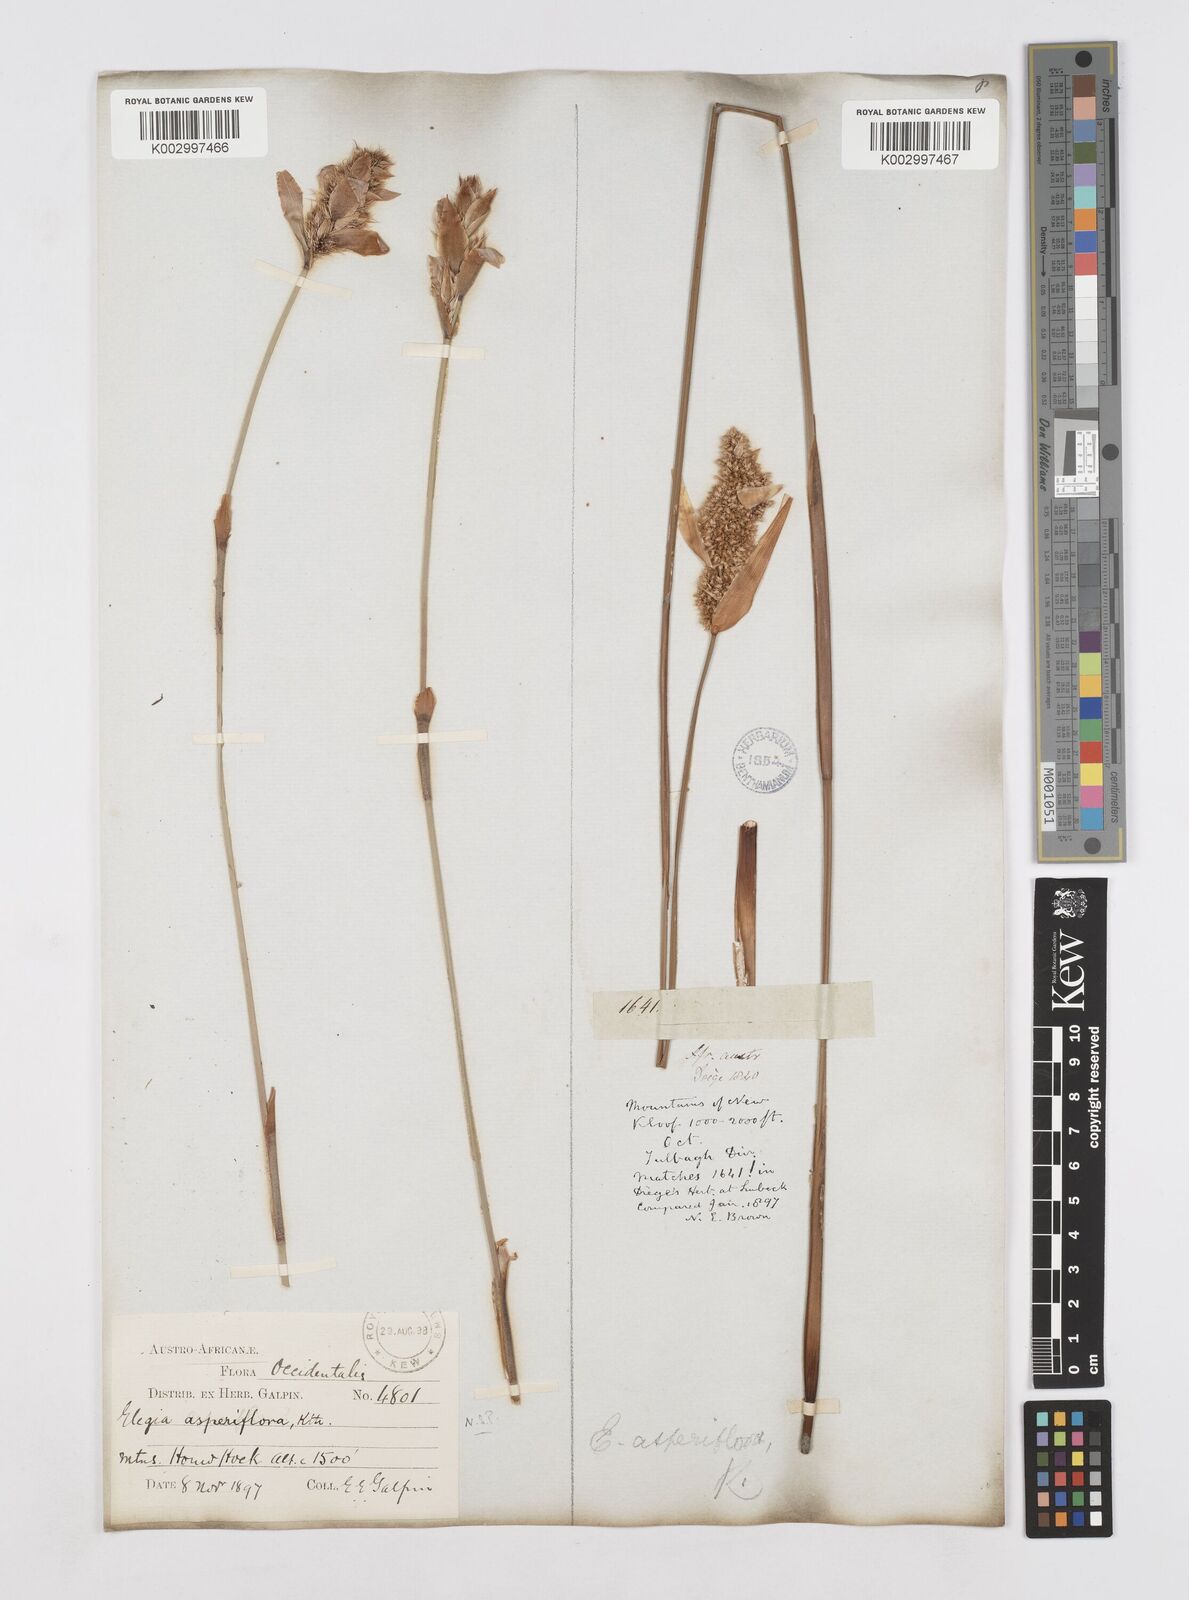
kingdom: Plantae
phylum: Tracheophyta
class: Liliopsida
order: Poales
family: Restionaceae
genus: Elegia
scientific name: Elegia asperiflora
